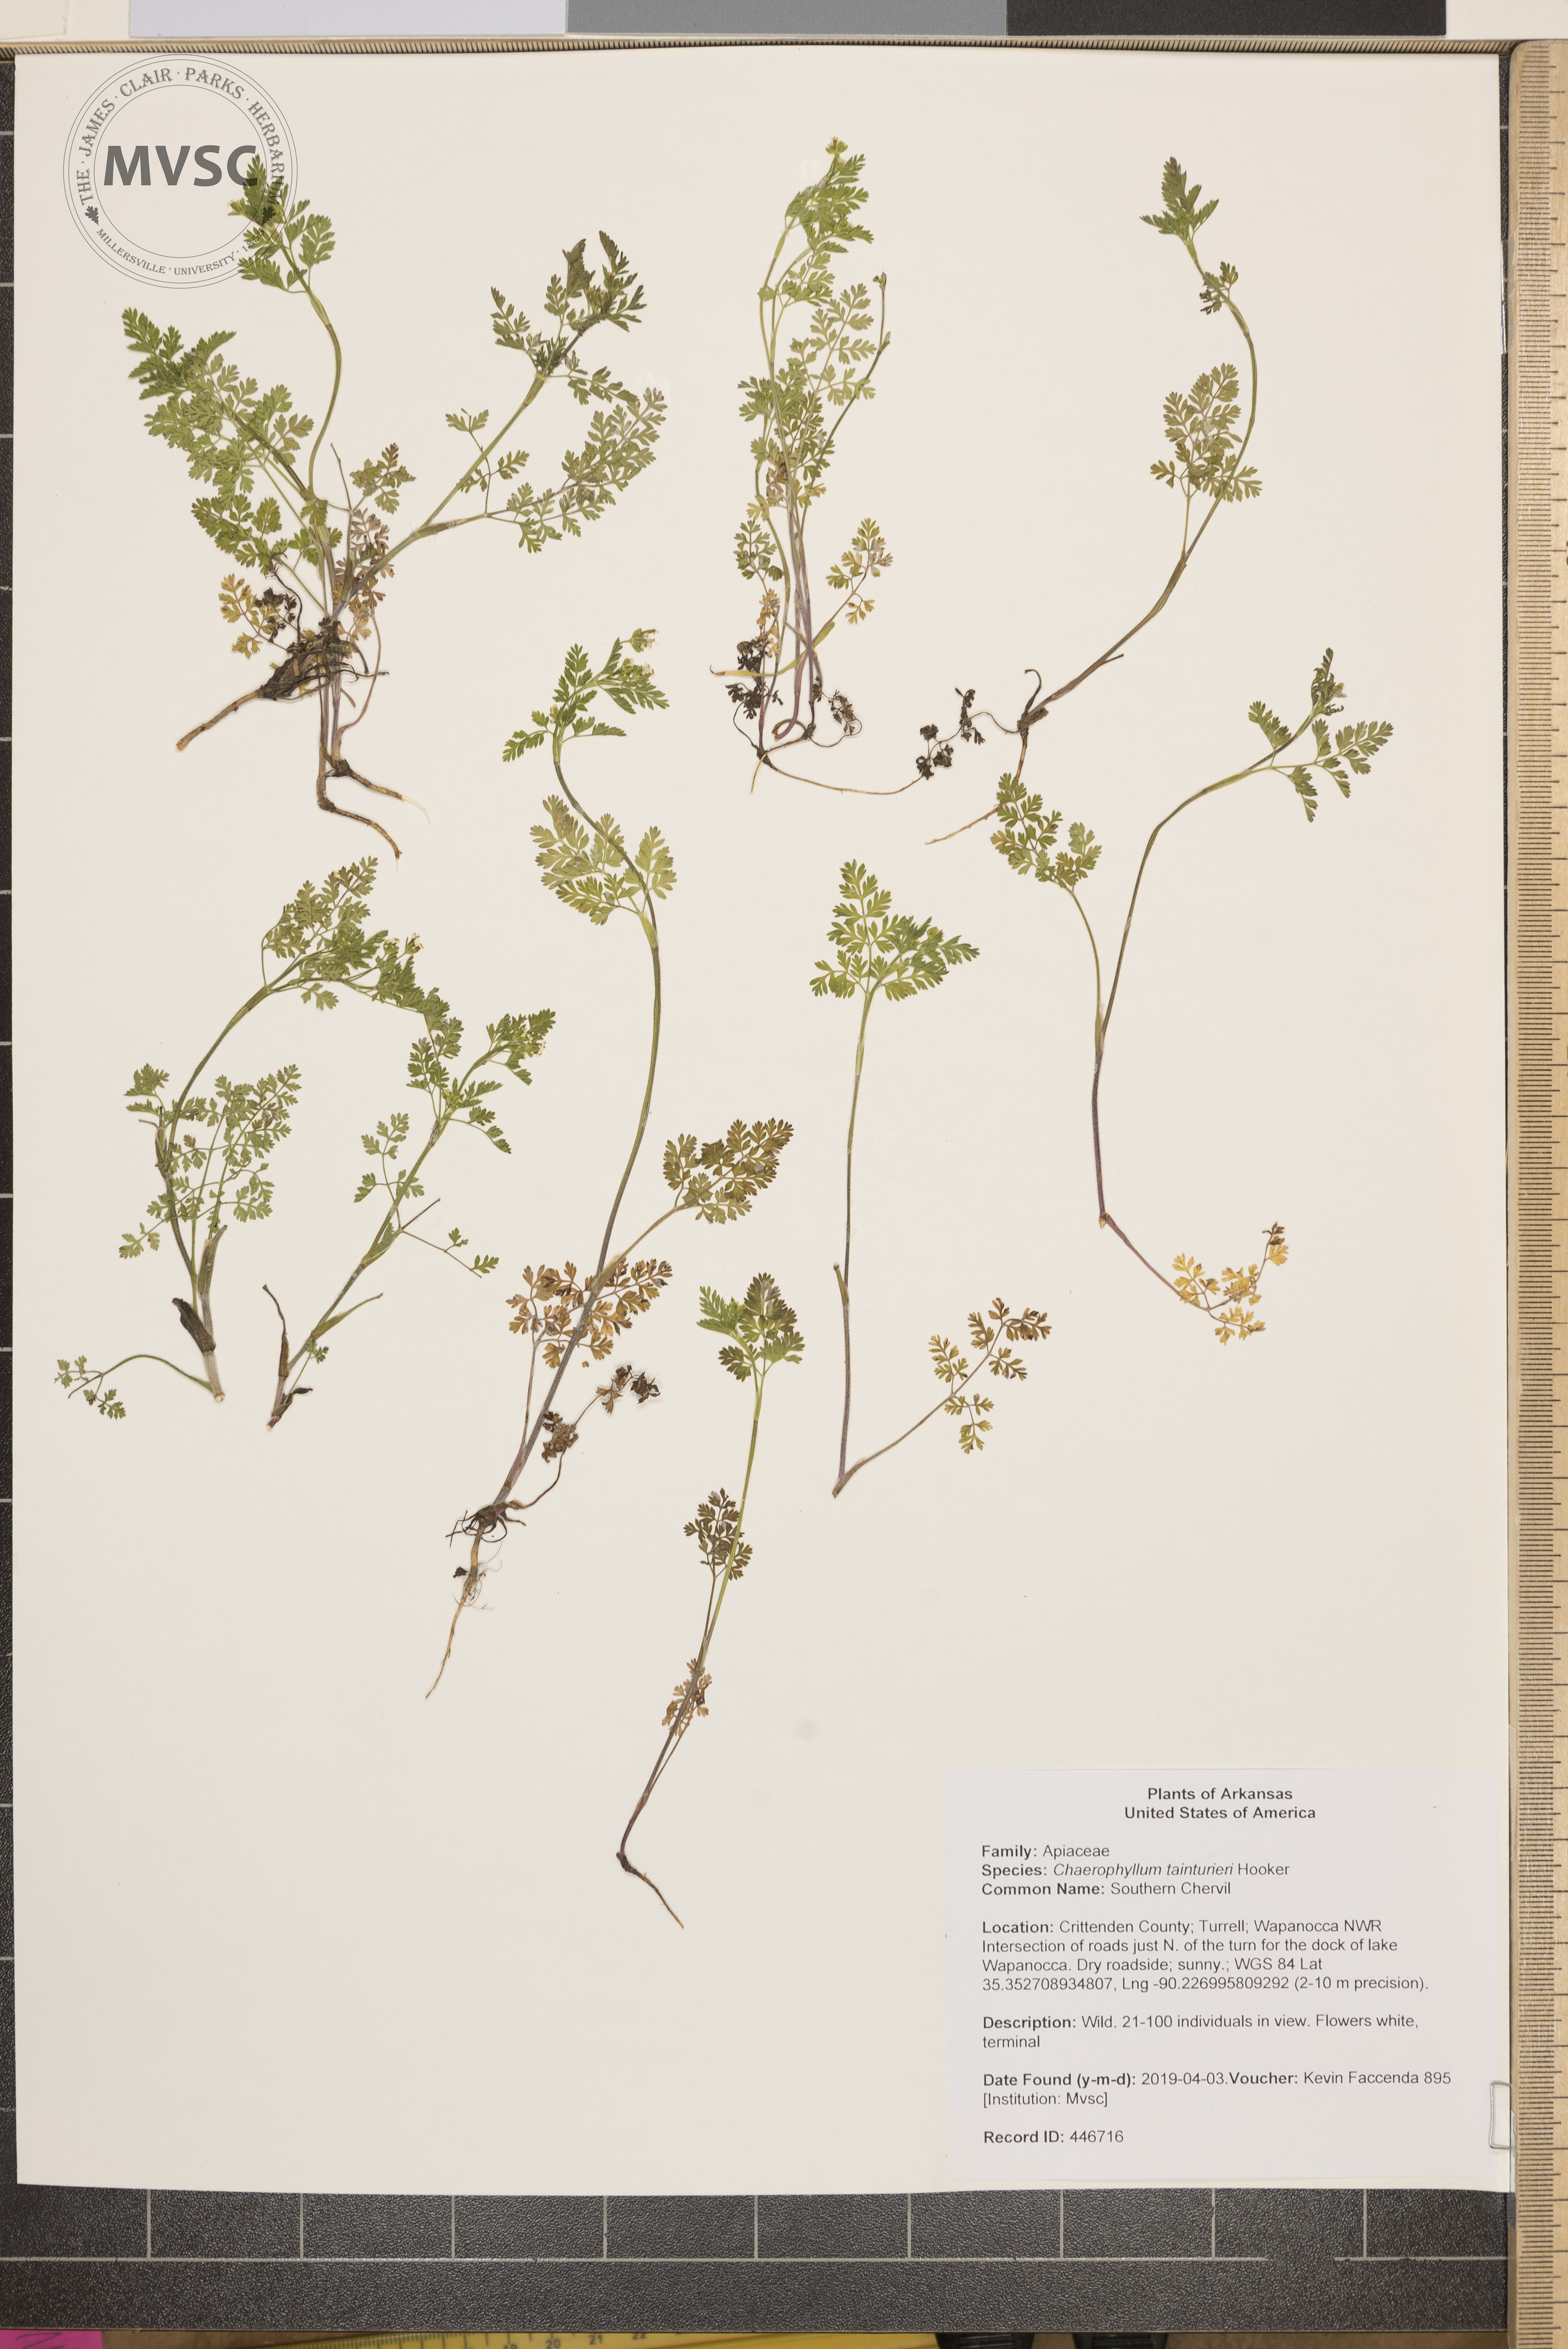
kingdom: Plantae
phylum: Tracheophyta
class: Magnoliopsida
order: Apiales
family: Apiaceae
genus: Chaerophyllum
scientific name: Chaerophyllum tainturieri
